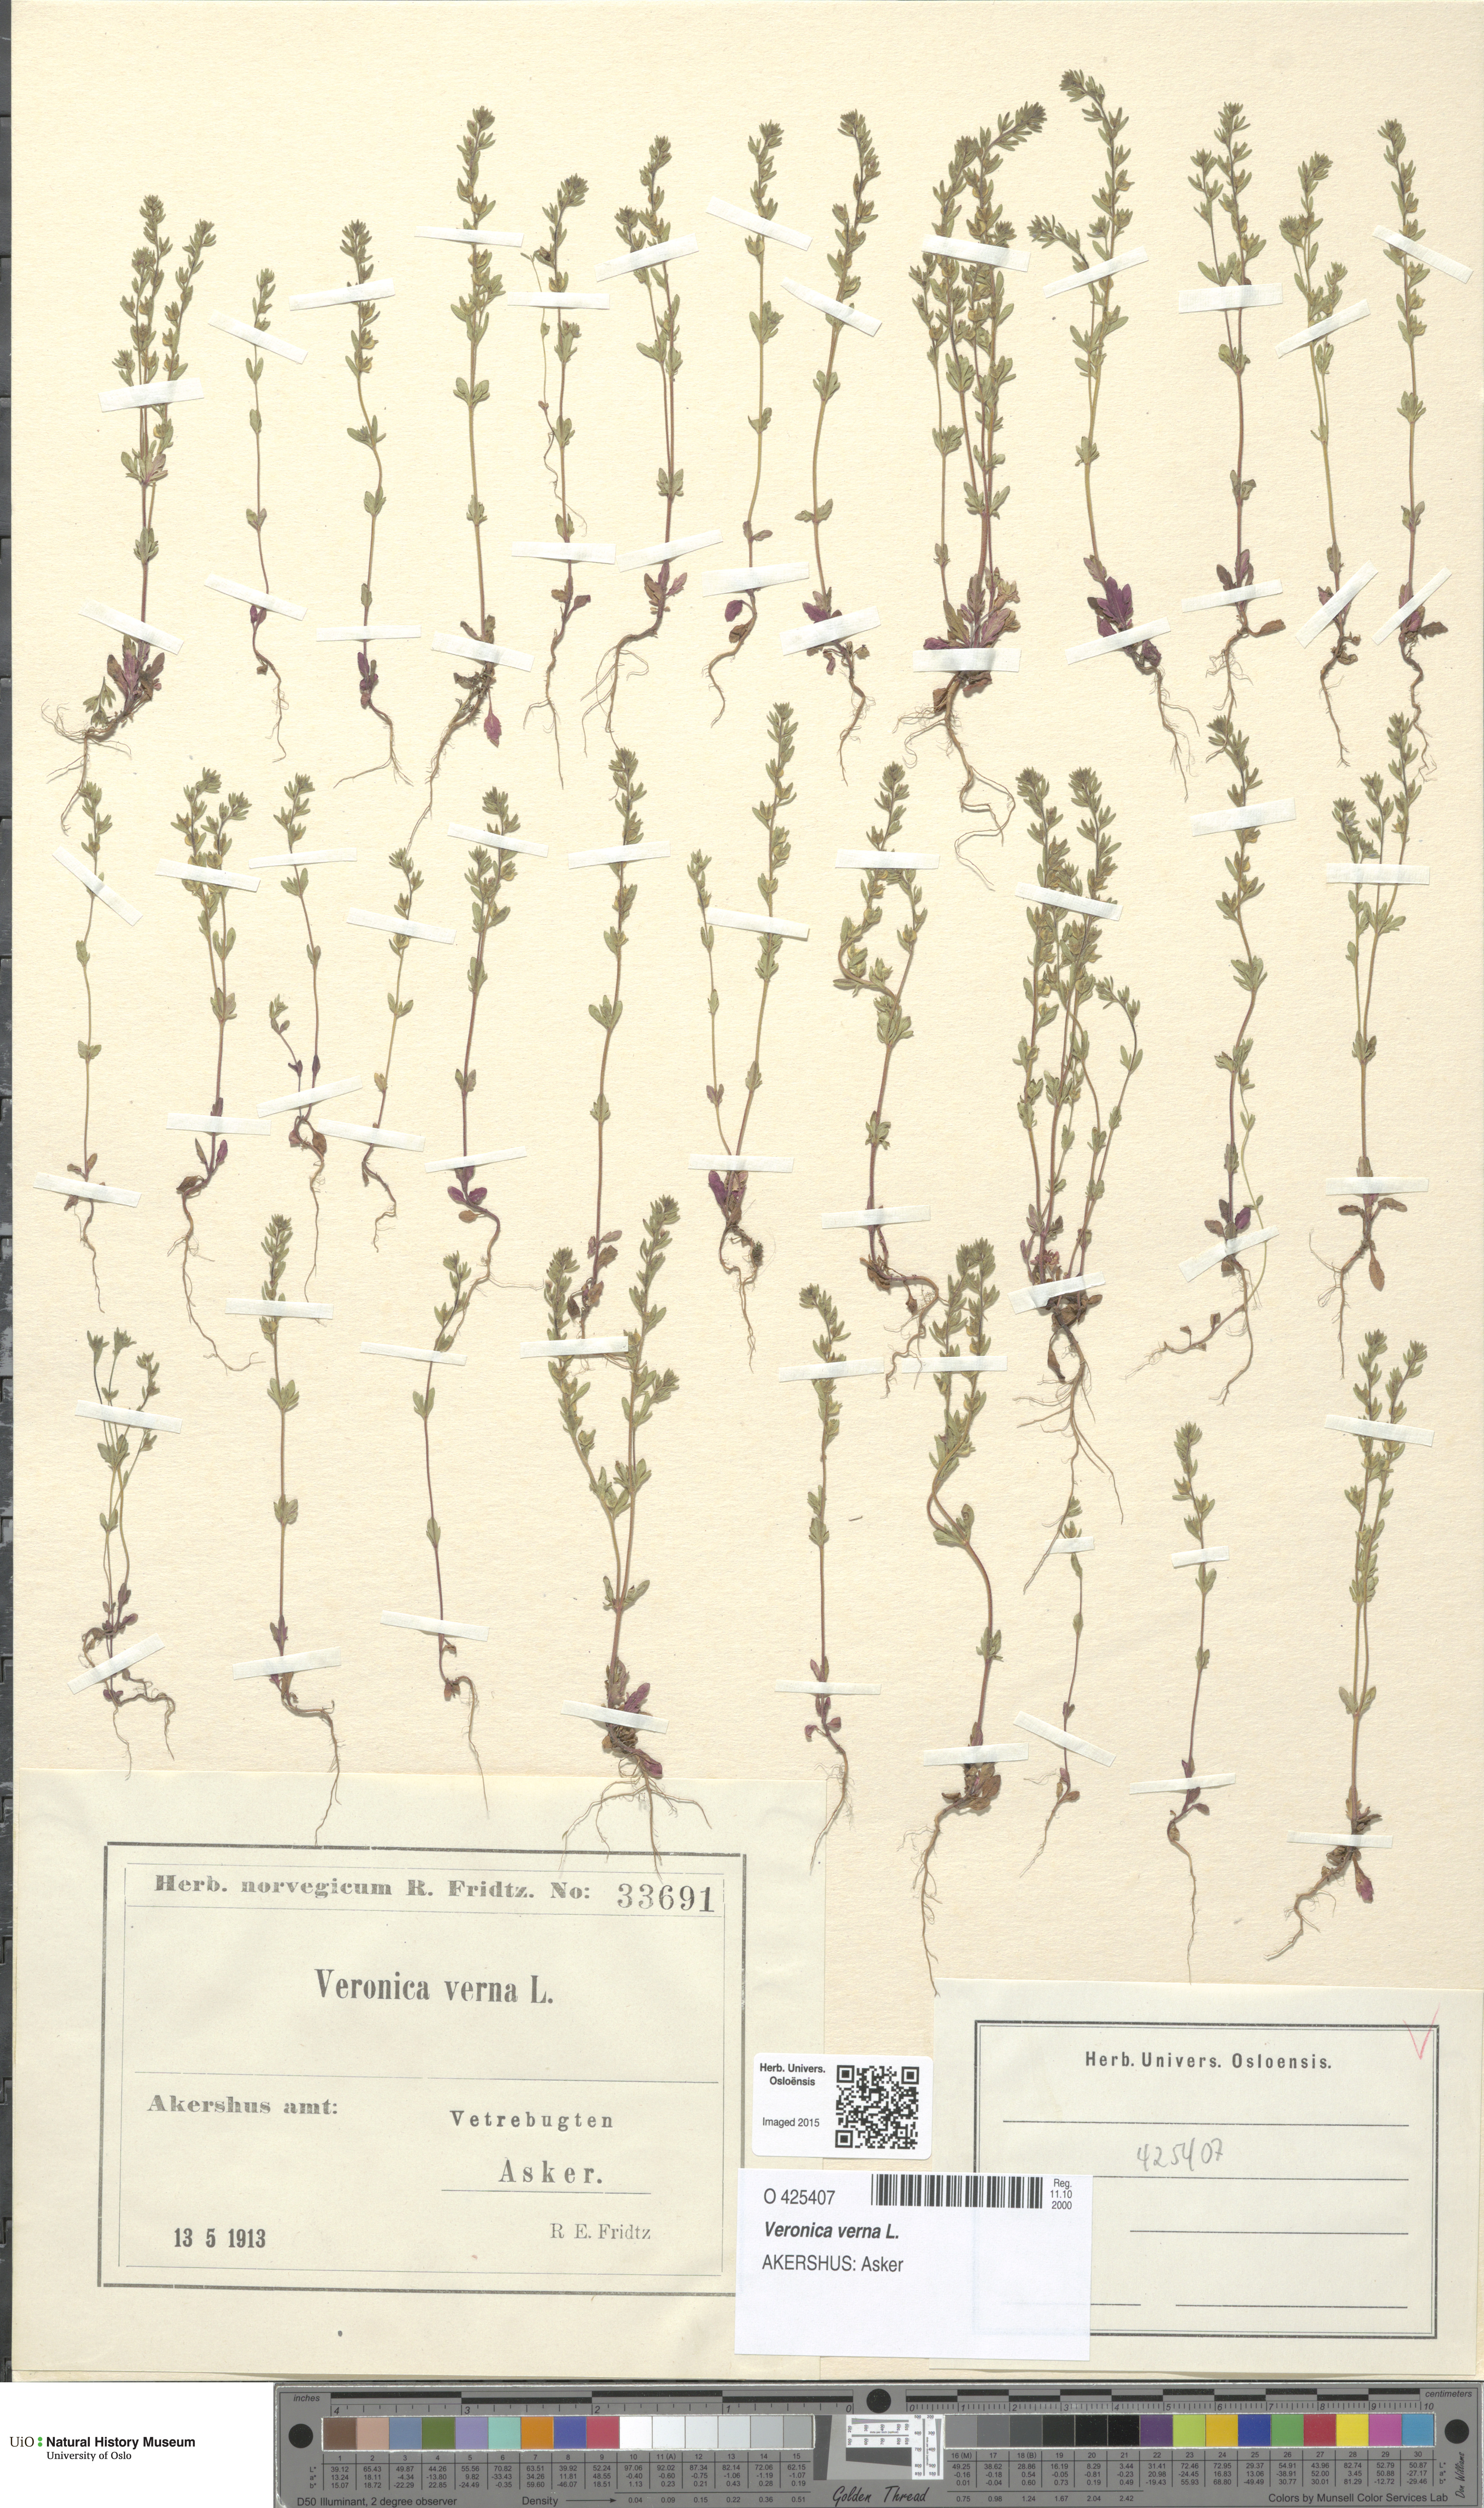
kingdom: Plantae
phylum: Tracheophyta
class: Magnoliopsida
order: Lamiales
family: Plantaginaceae
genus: Veronica
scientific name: Veronica verna
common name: Spring speedwell
